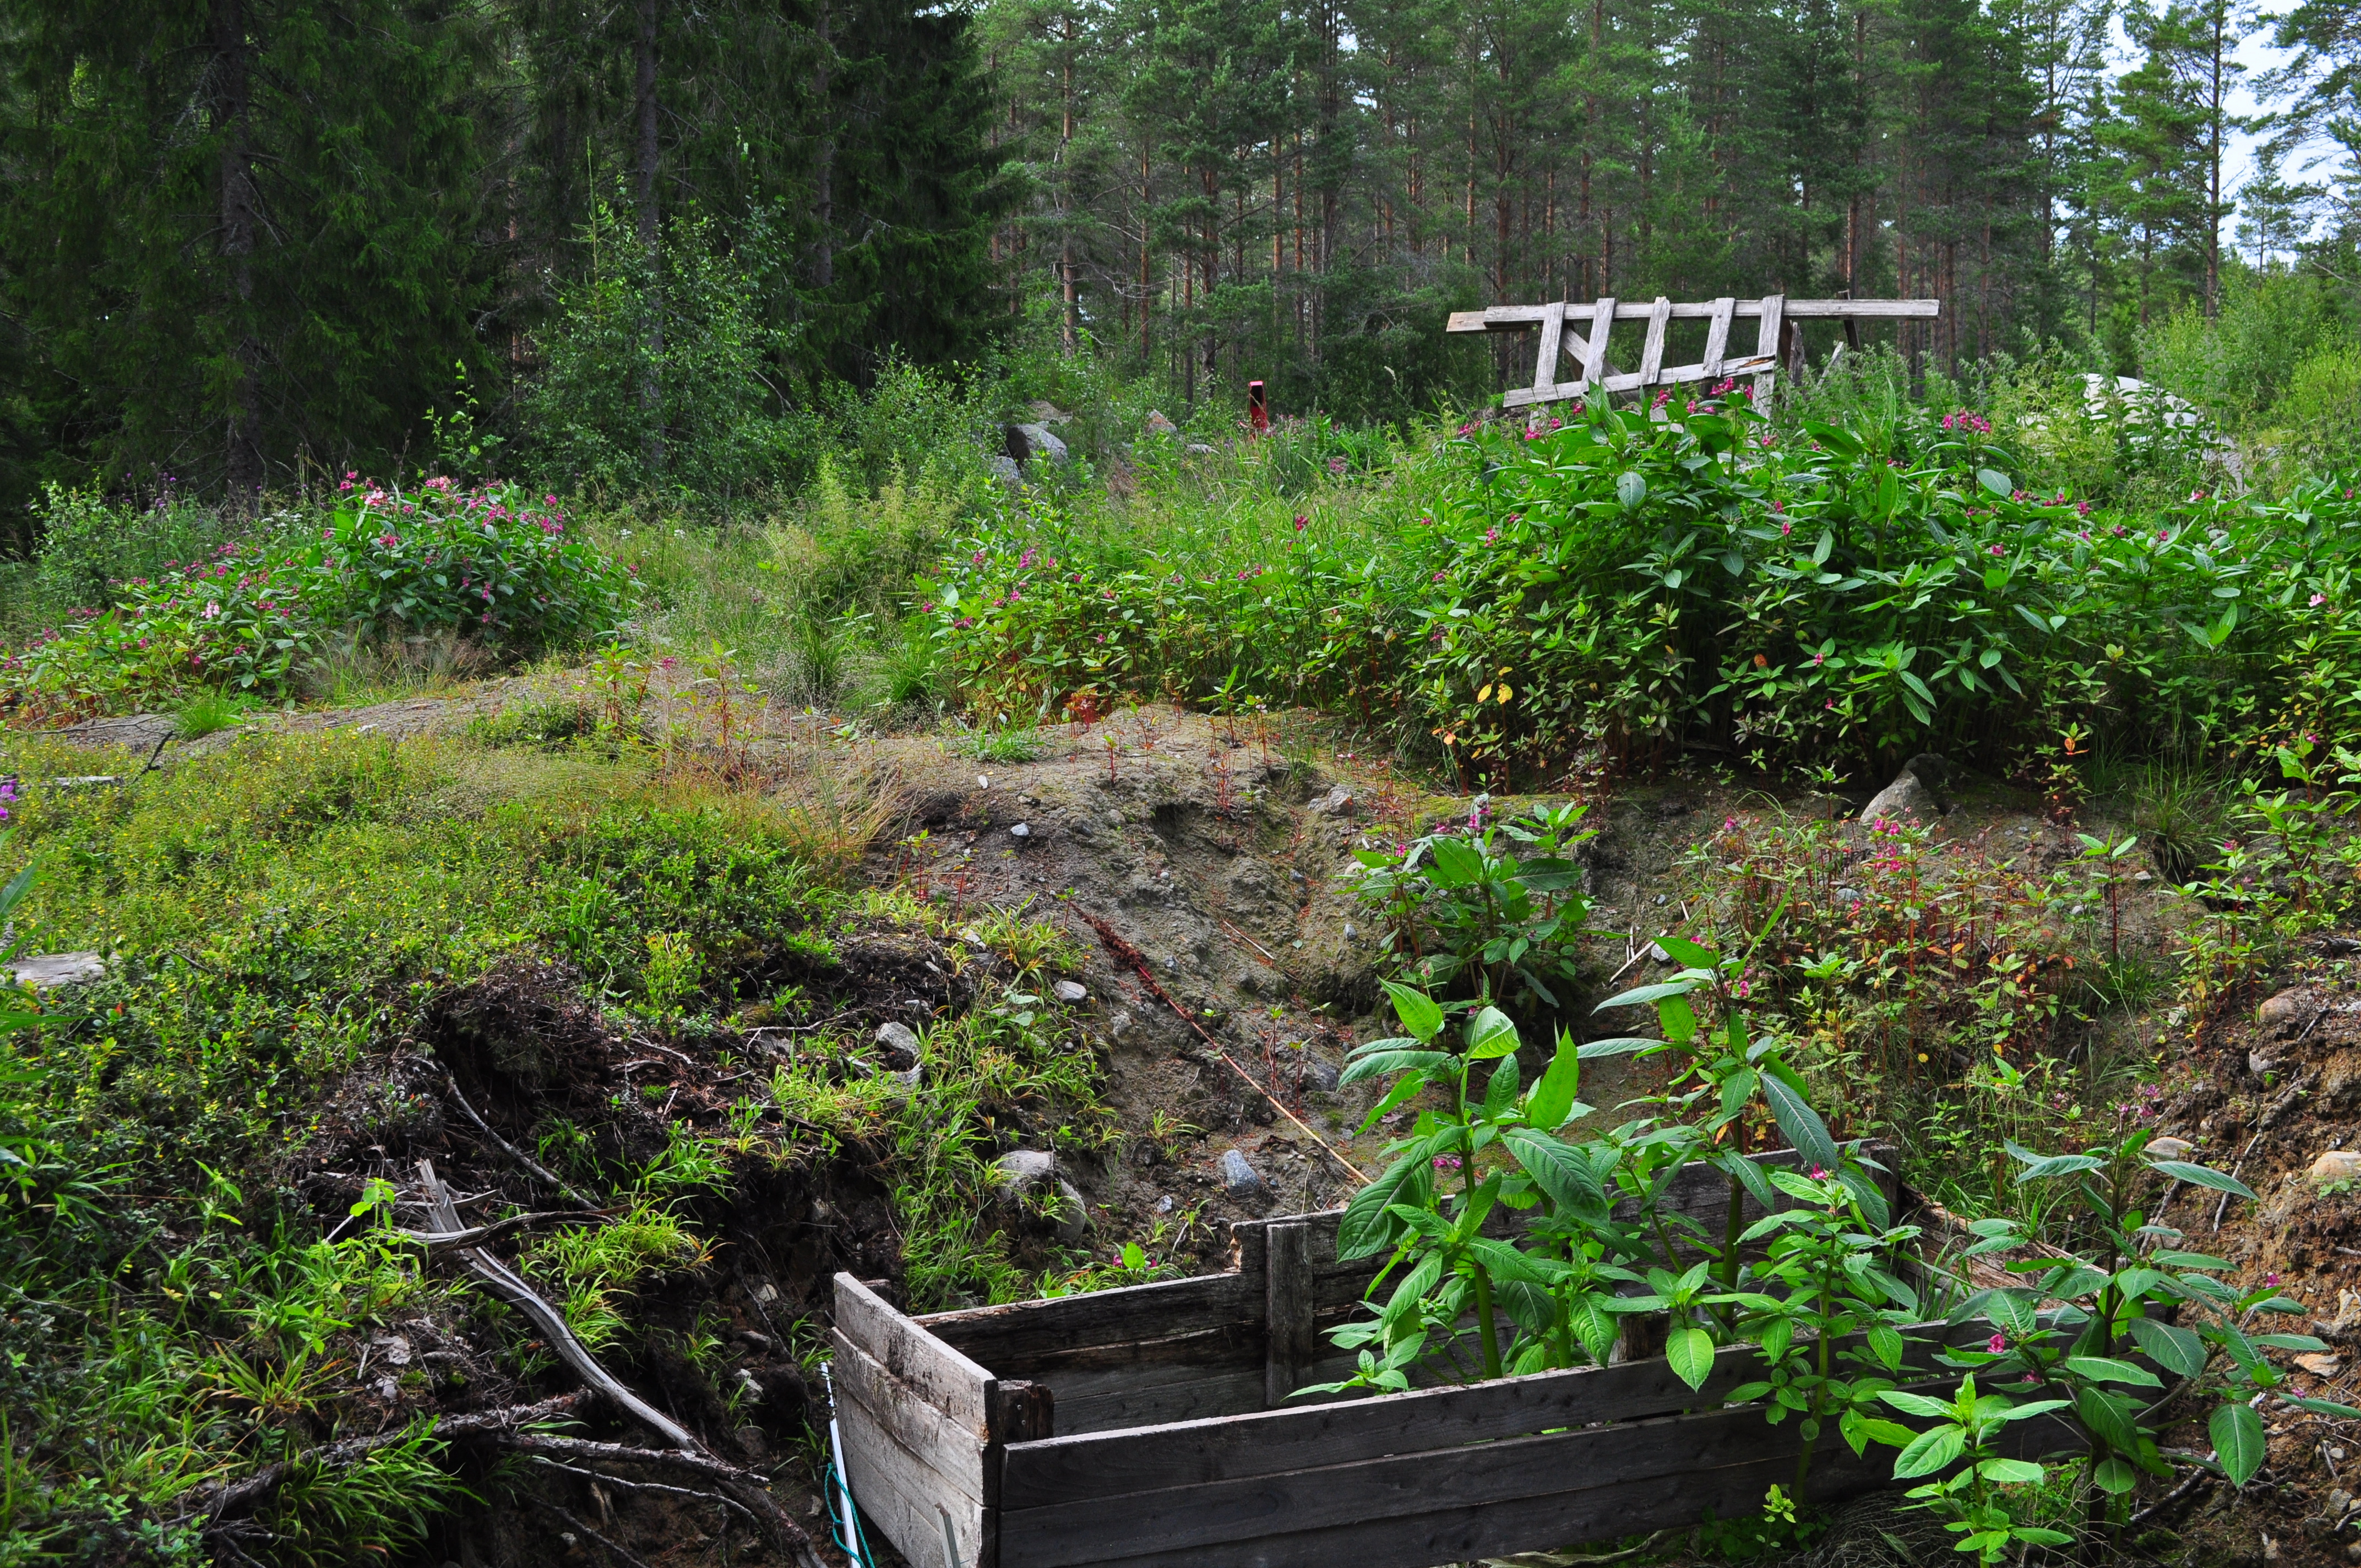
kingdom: Plantae
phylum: Tracheophyta
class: Magnoliopsida
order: Ericales
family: Balsaminaceae
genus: Impatiens
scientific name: Impatiens glandulifera
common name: Himalayan balsam
